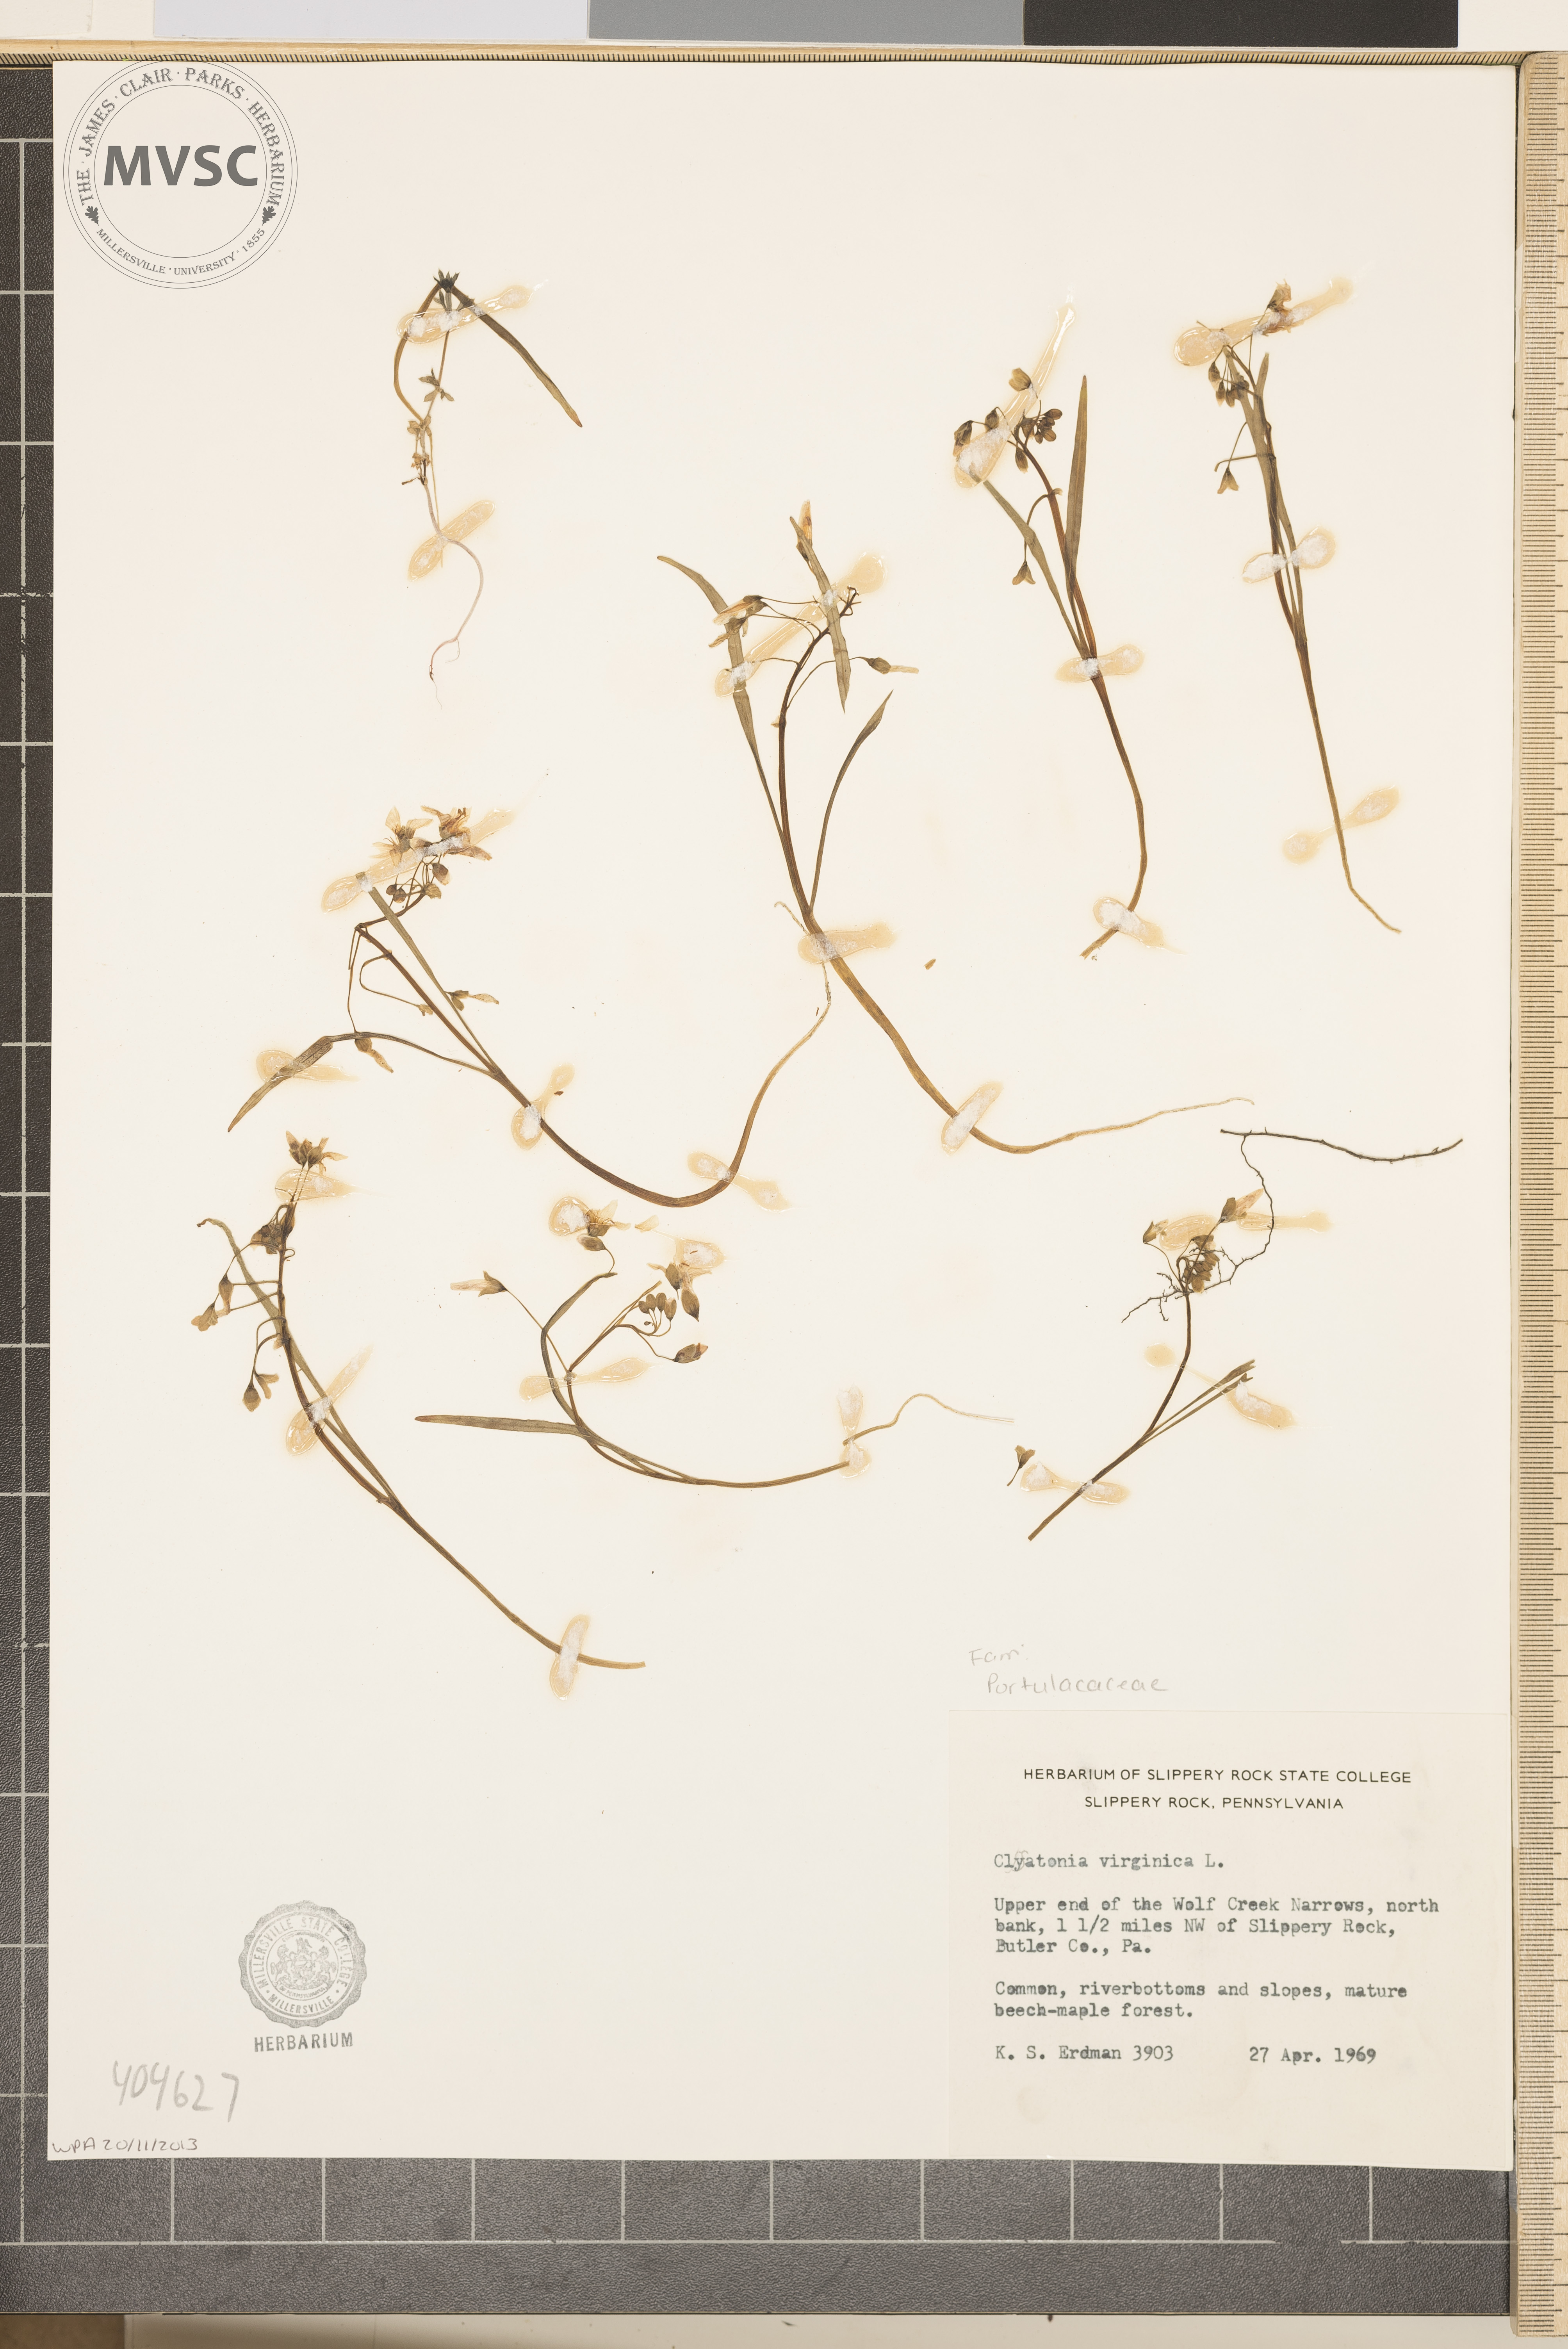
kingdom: Plantae
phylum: Tracheophyta
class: Magnoliopsida
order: Caryophyllales
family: Montiaceae
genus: Claytonia
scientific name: Claytonia virginica
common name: Virginia springbeauty
